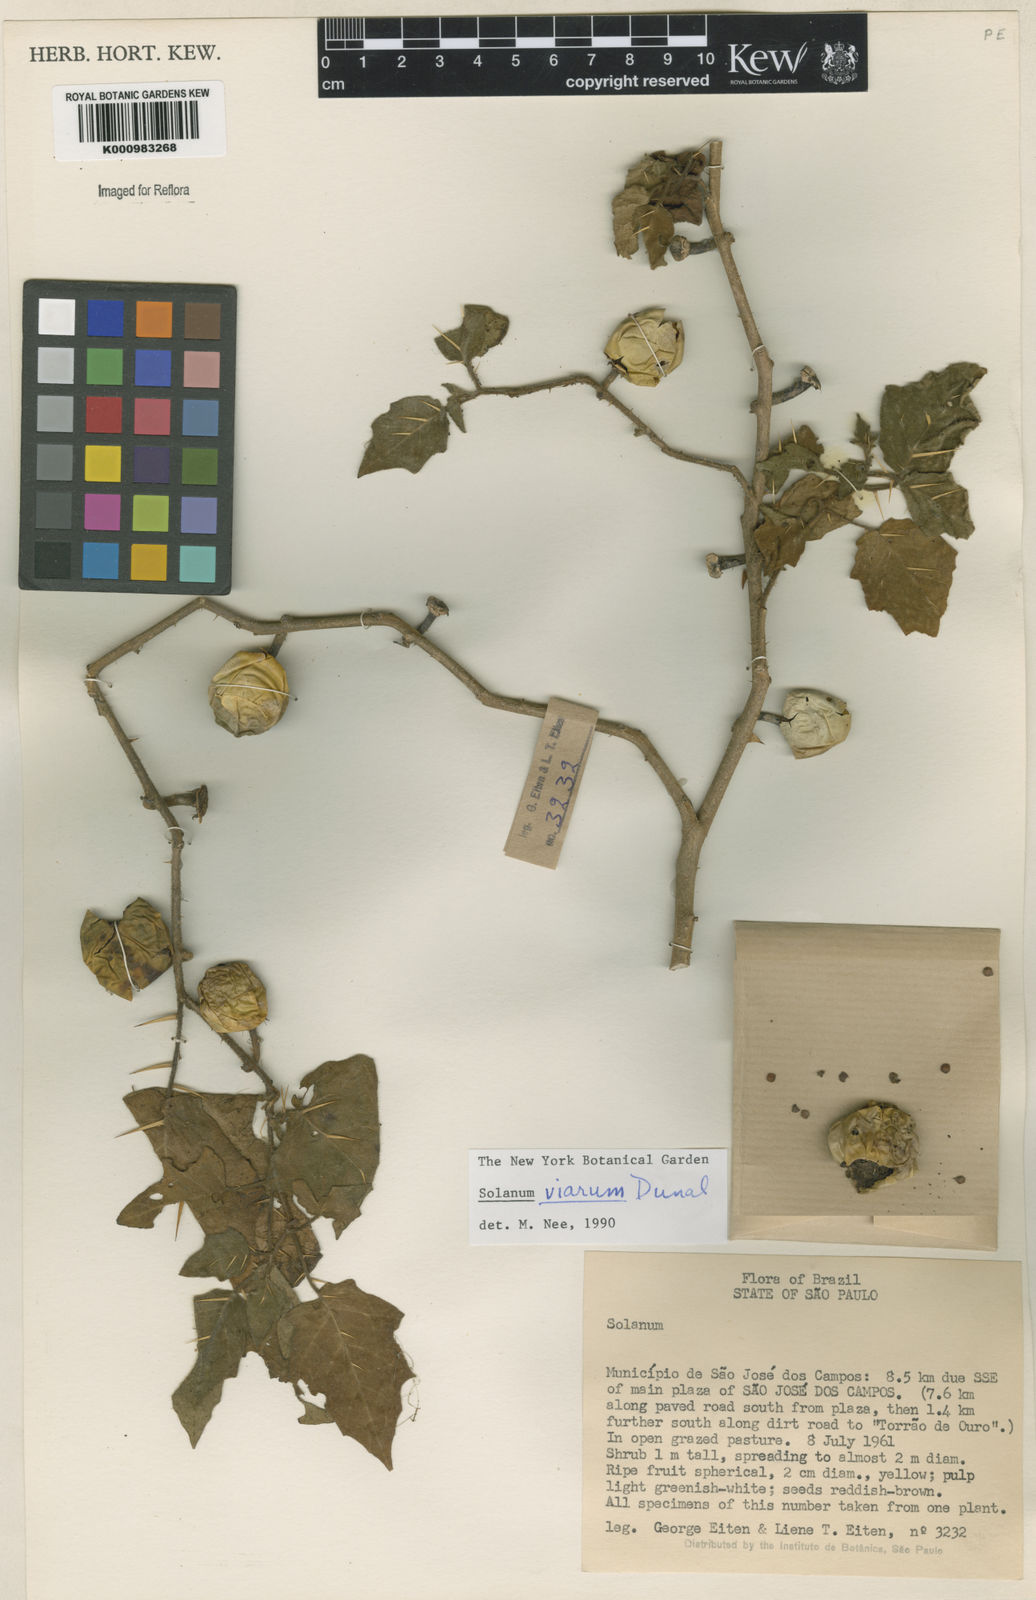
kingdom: Plantae
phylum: Tracheophyta
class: Magnoliopsida
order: Solanales
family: Solanaceae
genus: Solanum
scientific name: Solanum viarum
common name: Tropical soda apple
